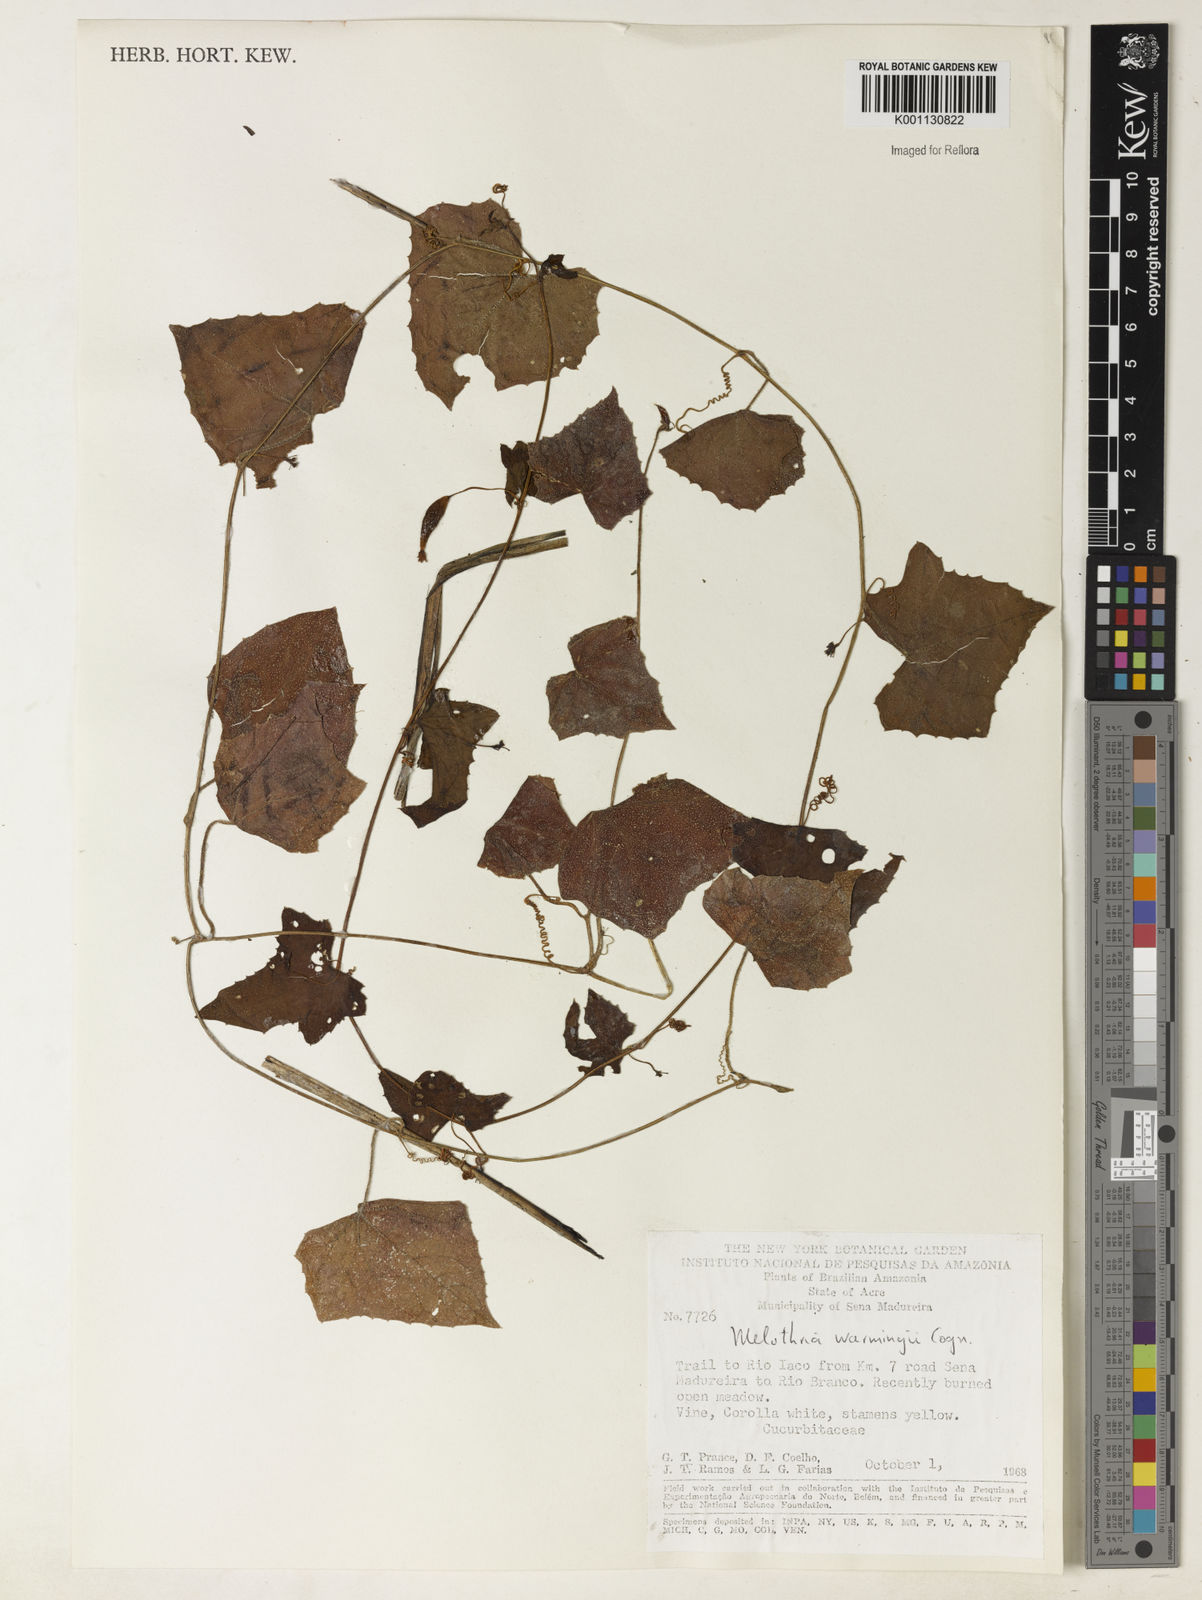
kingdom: Plantae
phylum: Tracheophyta
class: Magnoliopsida
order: Cucurbitales
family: Cucurbitaceae
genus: Melothria
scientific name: Melothria warmingii
